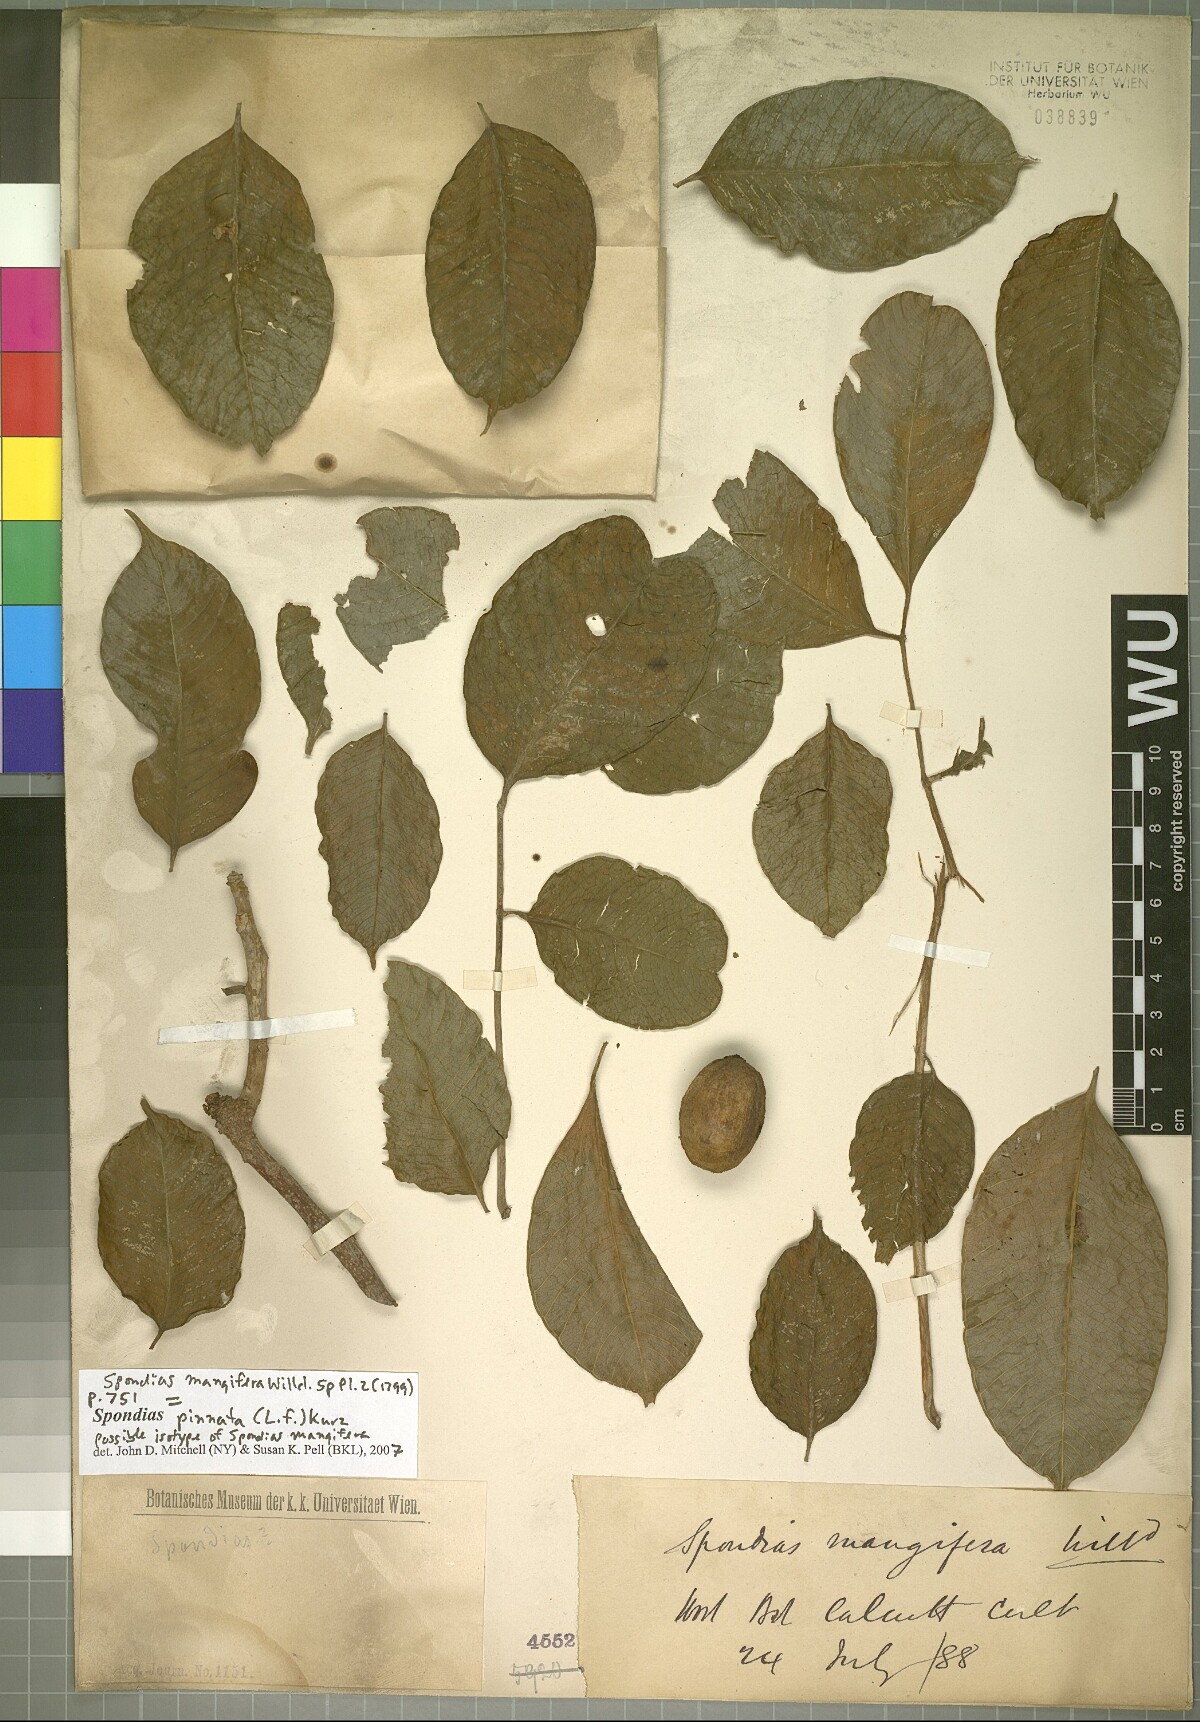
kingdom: Plantae
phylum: Tracheophyta
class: Magnoliopsida
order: Sapindales
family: Anacardiaceae
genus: Spondias
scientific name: Spondias pinnata
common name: Common hog-plum
